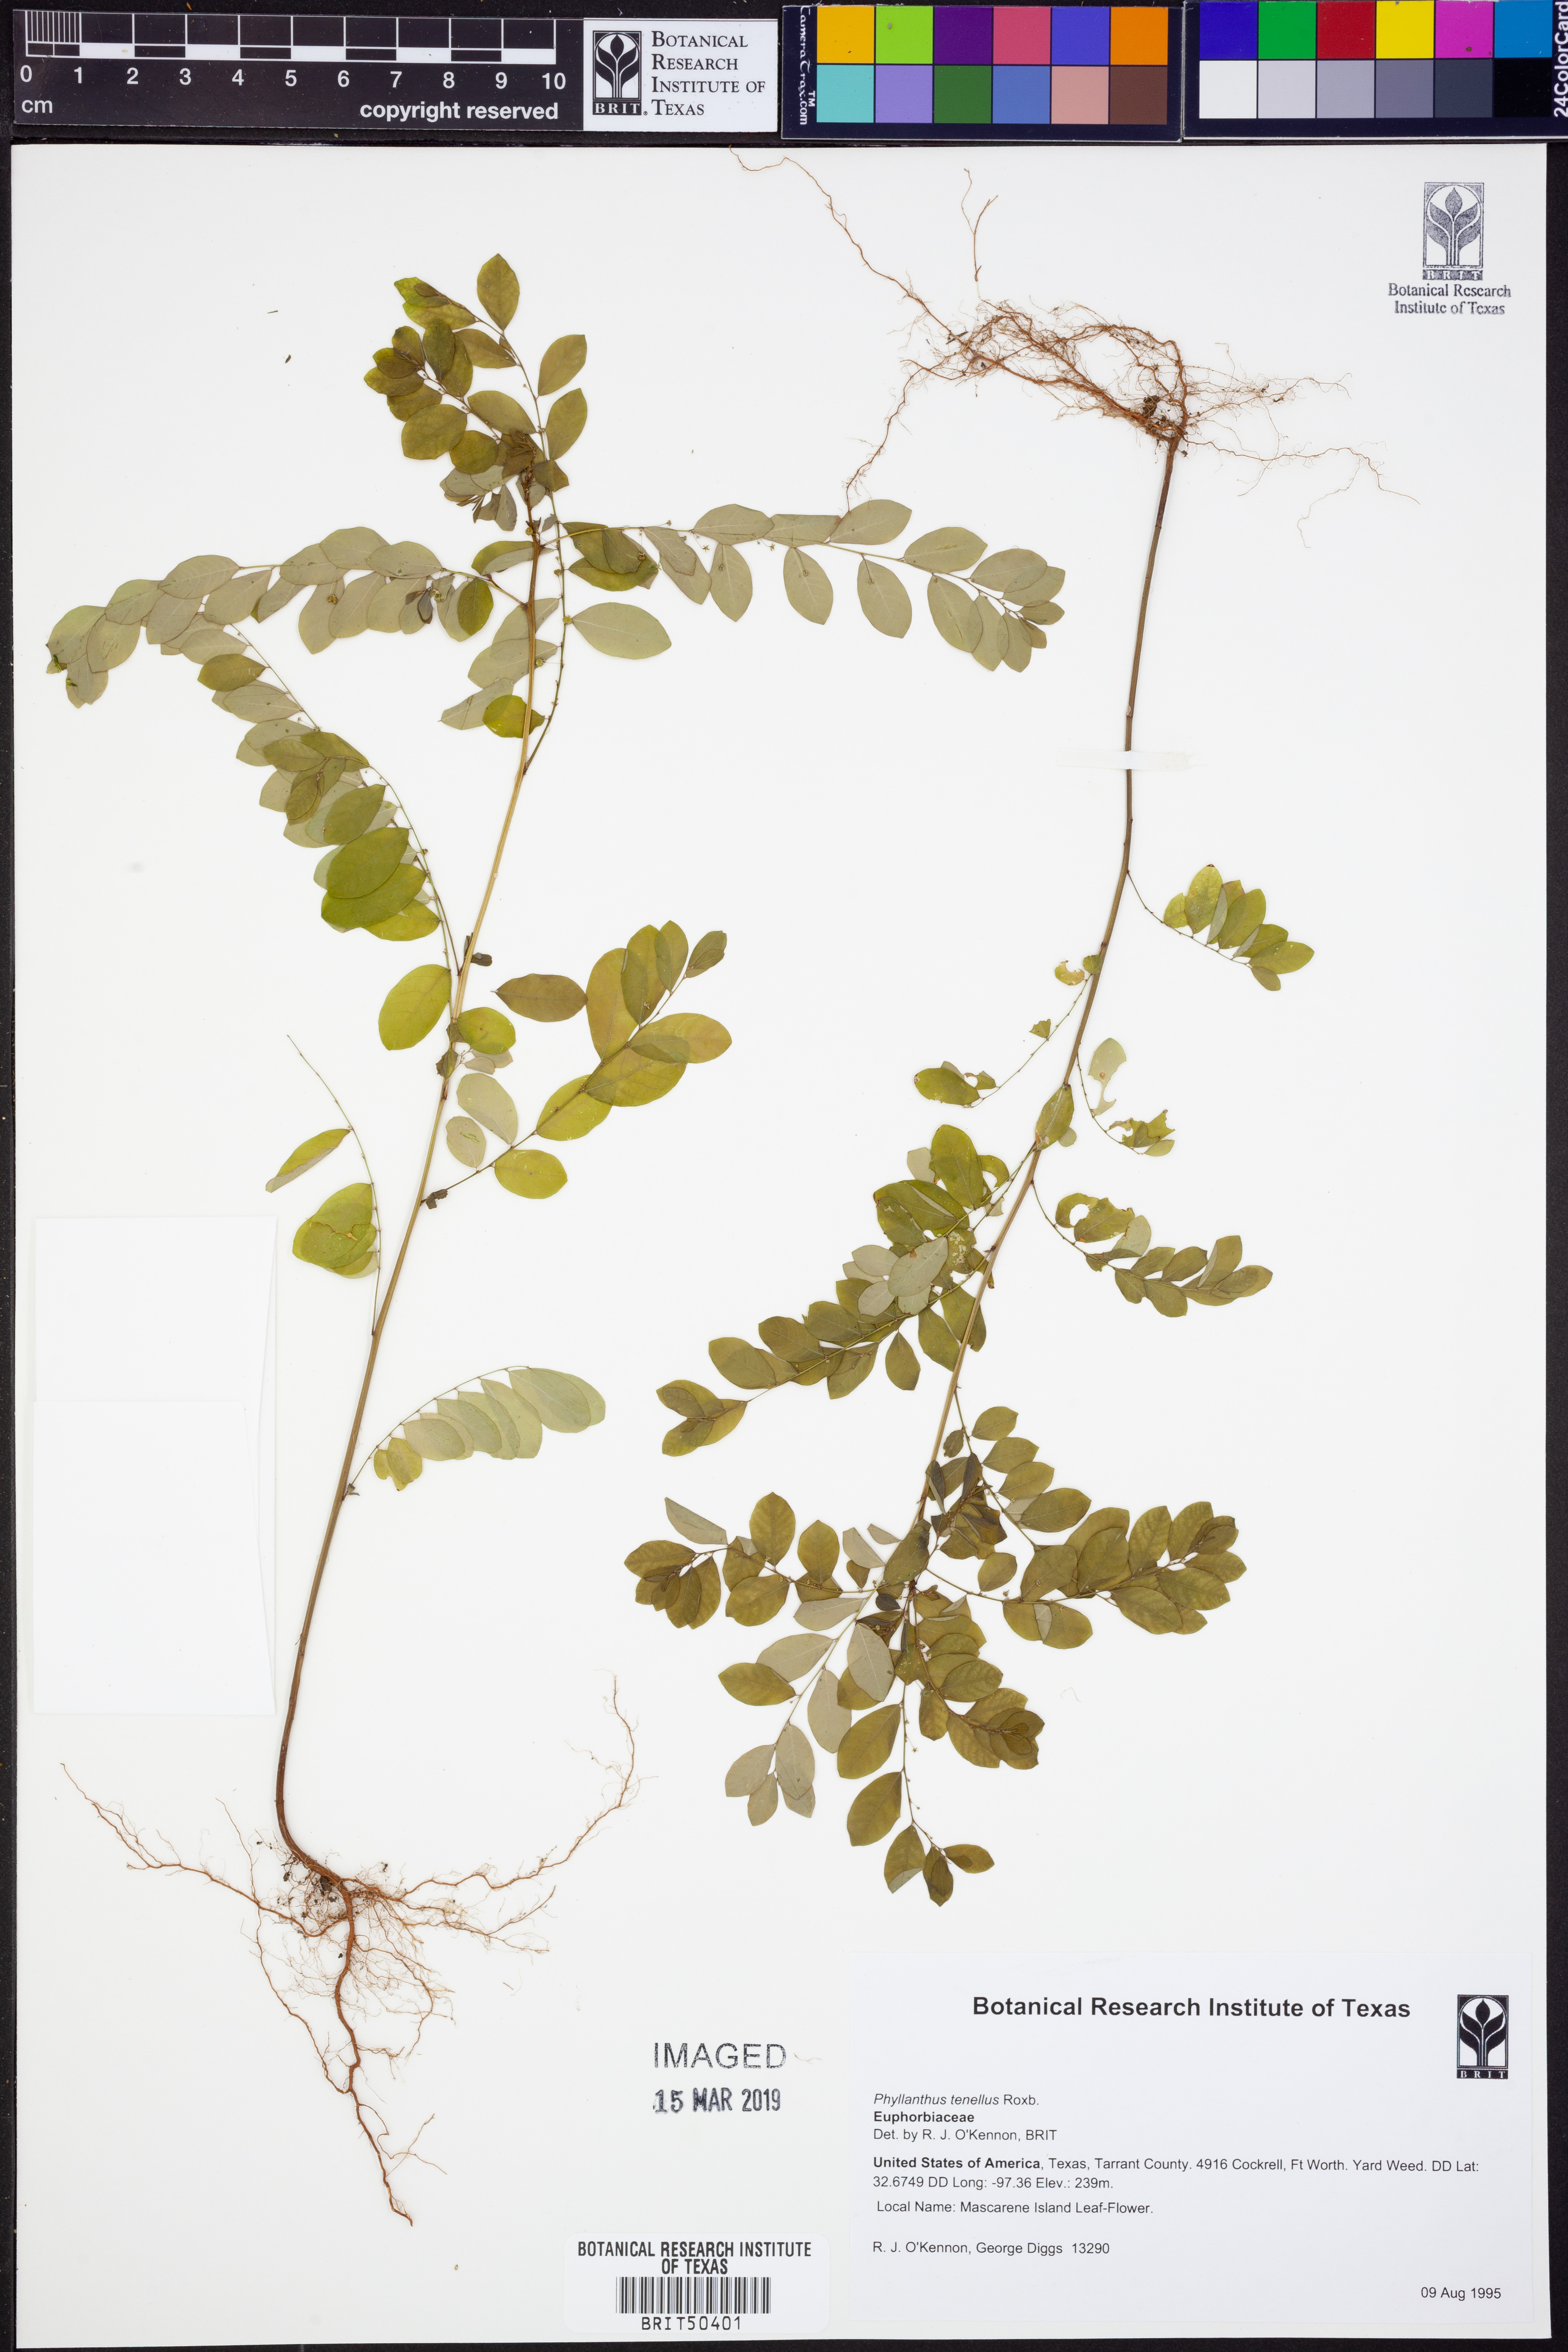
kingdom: Plantae
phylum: Tracheophyta
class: Magnoliopsida
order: Malpighiales
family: Phyllanthaceae
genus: Phyllanthus
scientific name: Phyllanthus tenellus
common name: Mascarene island leaf-flower
